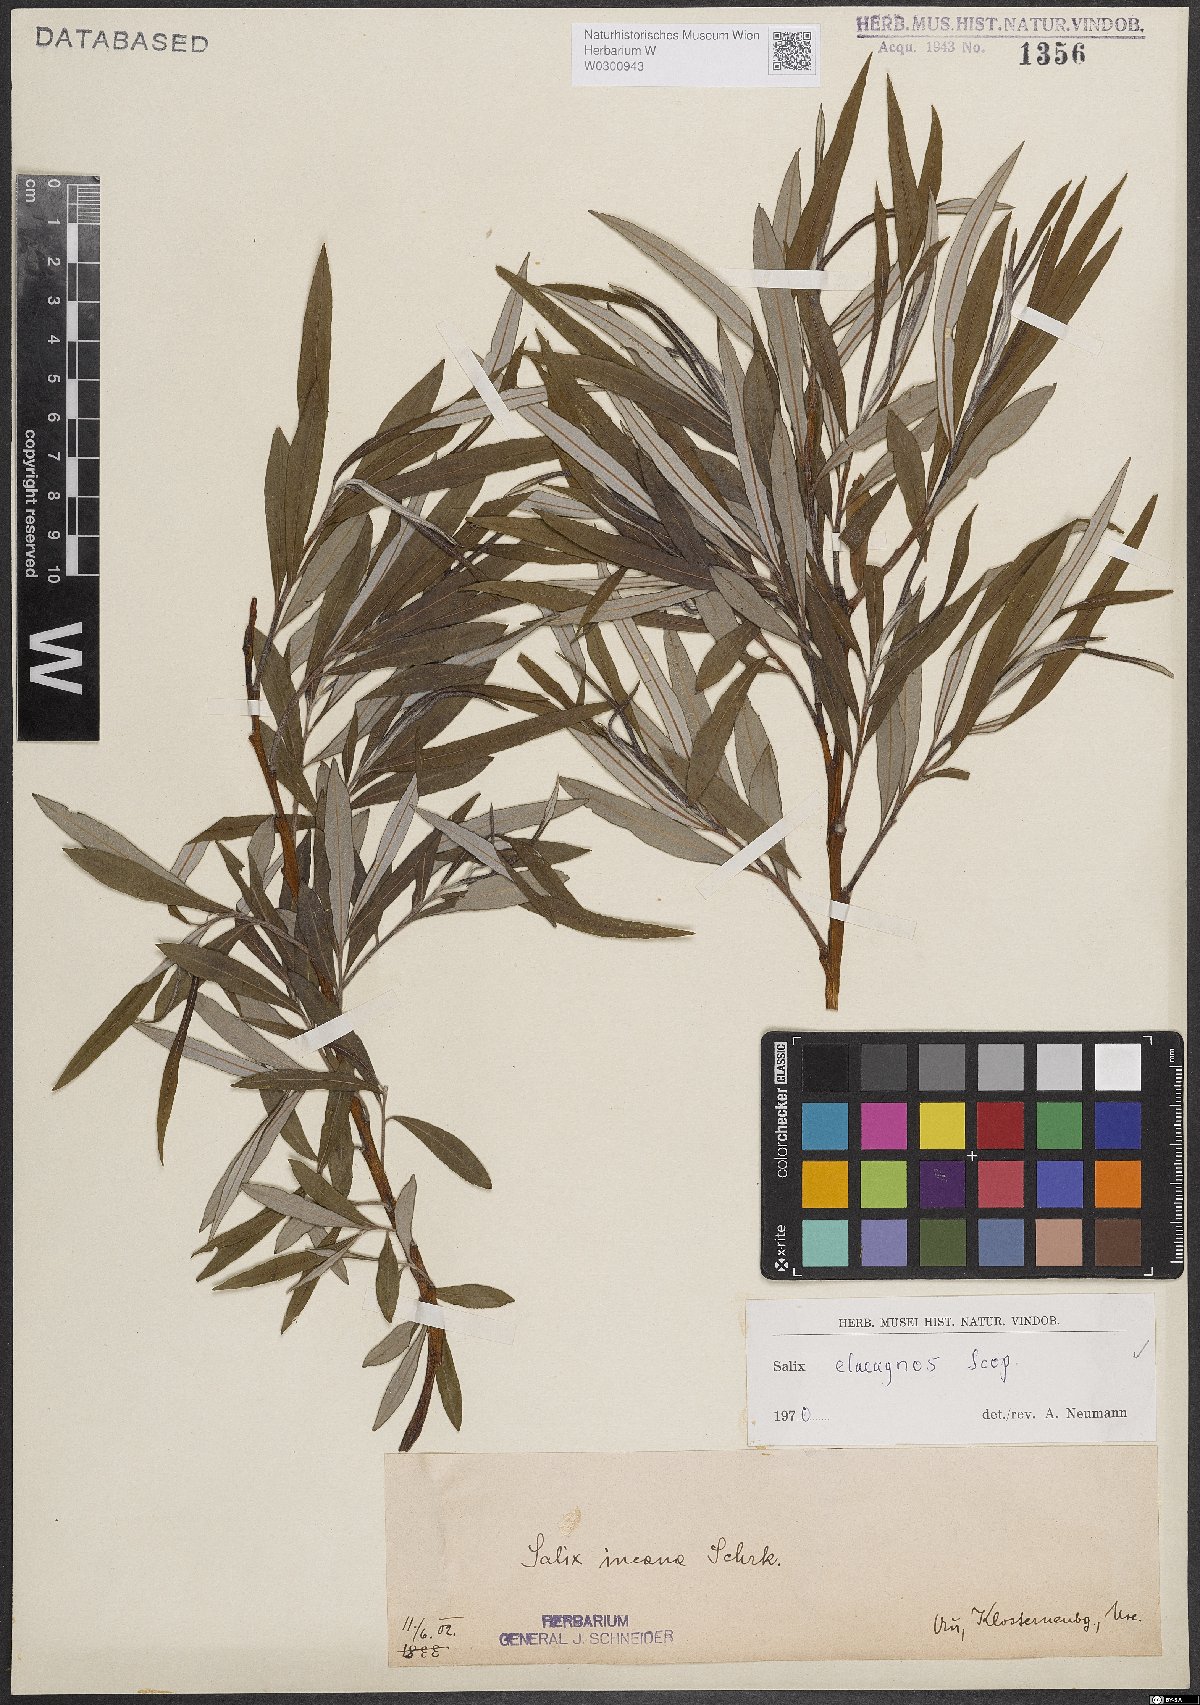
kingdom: Plantae
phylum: Tracheophyta
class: Magnoliopsida
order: Malpighiales
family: Salicaceae
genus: Salix
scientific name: Salix eleagnos
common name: Elaeagnus willow
